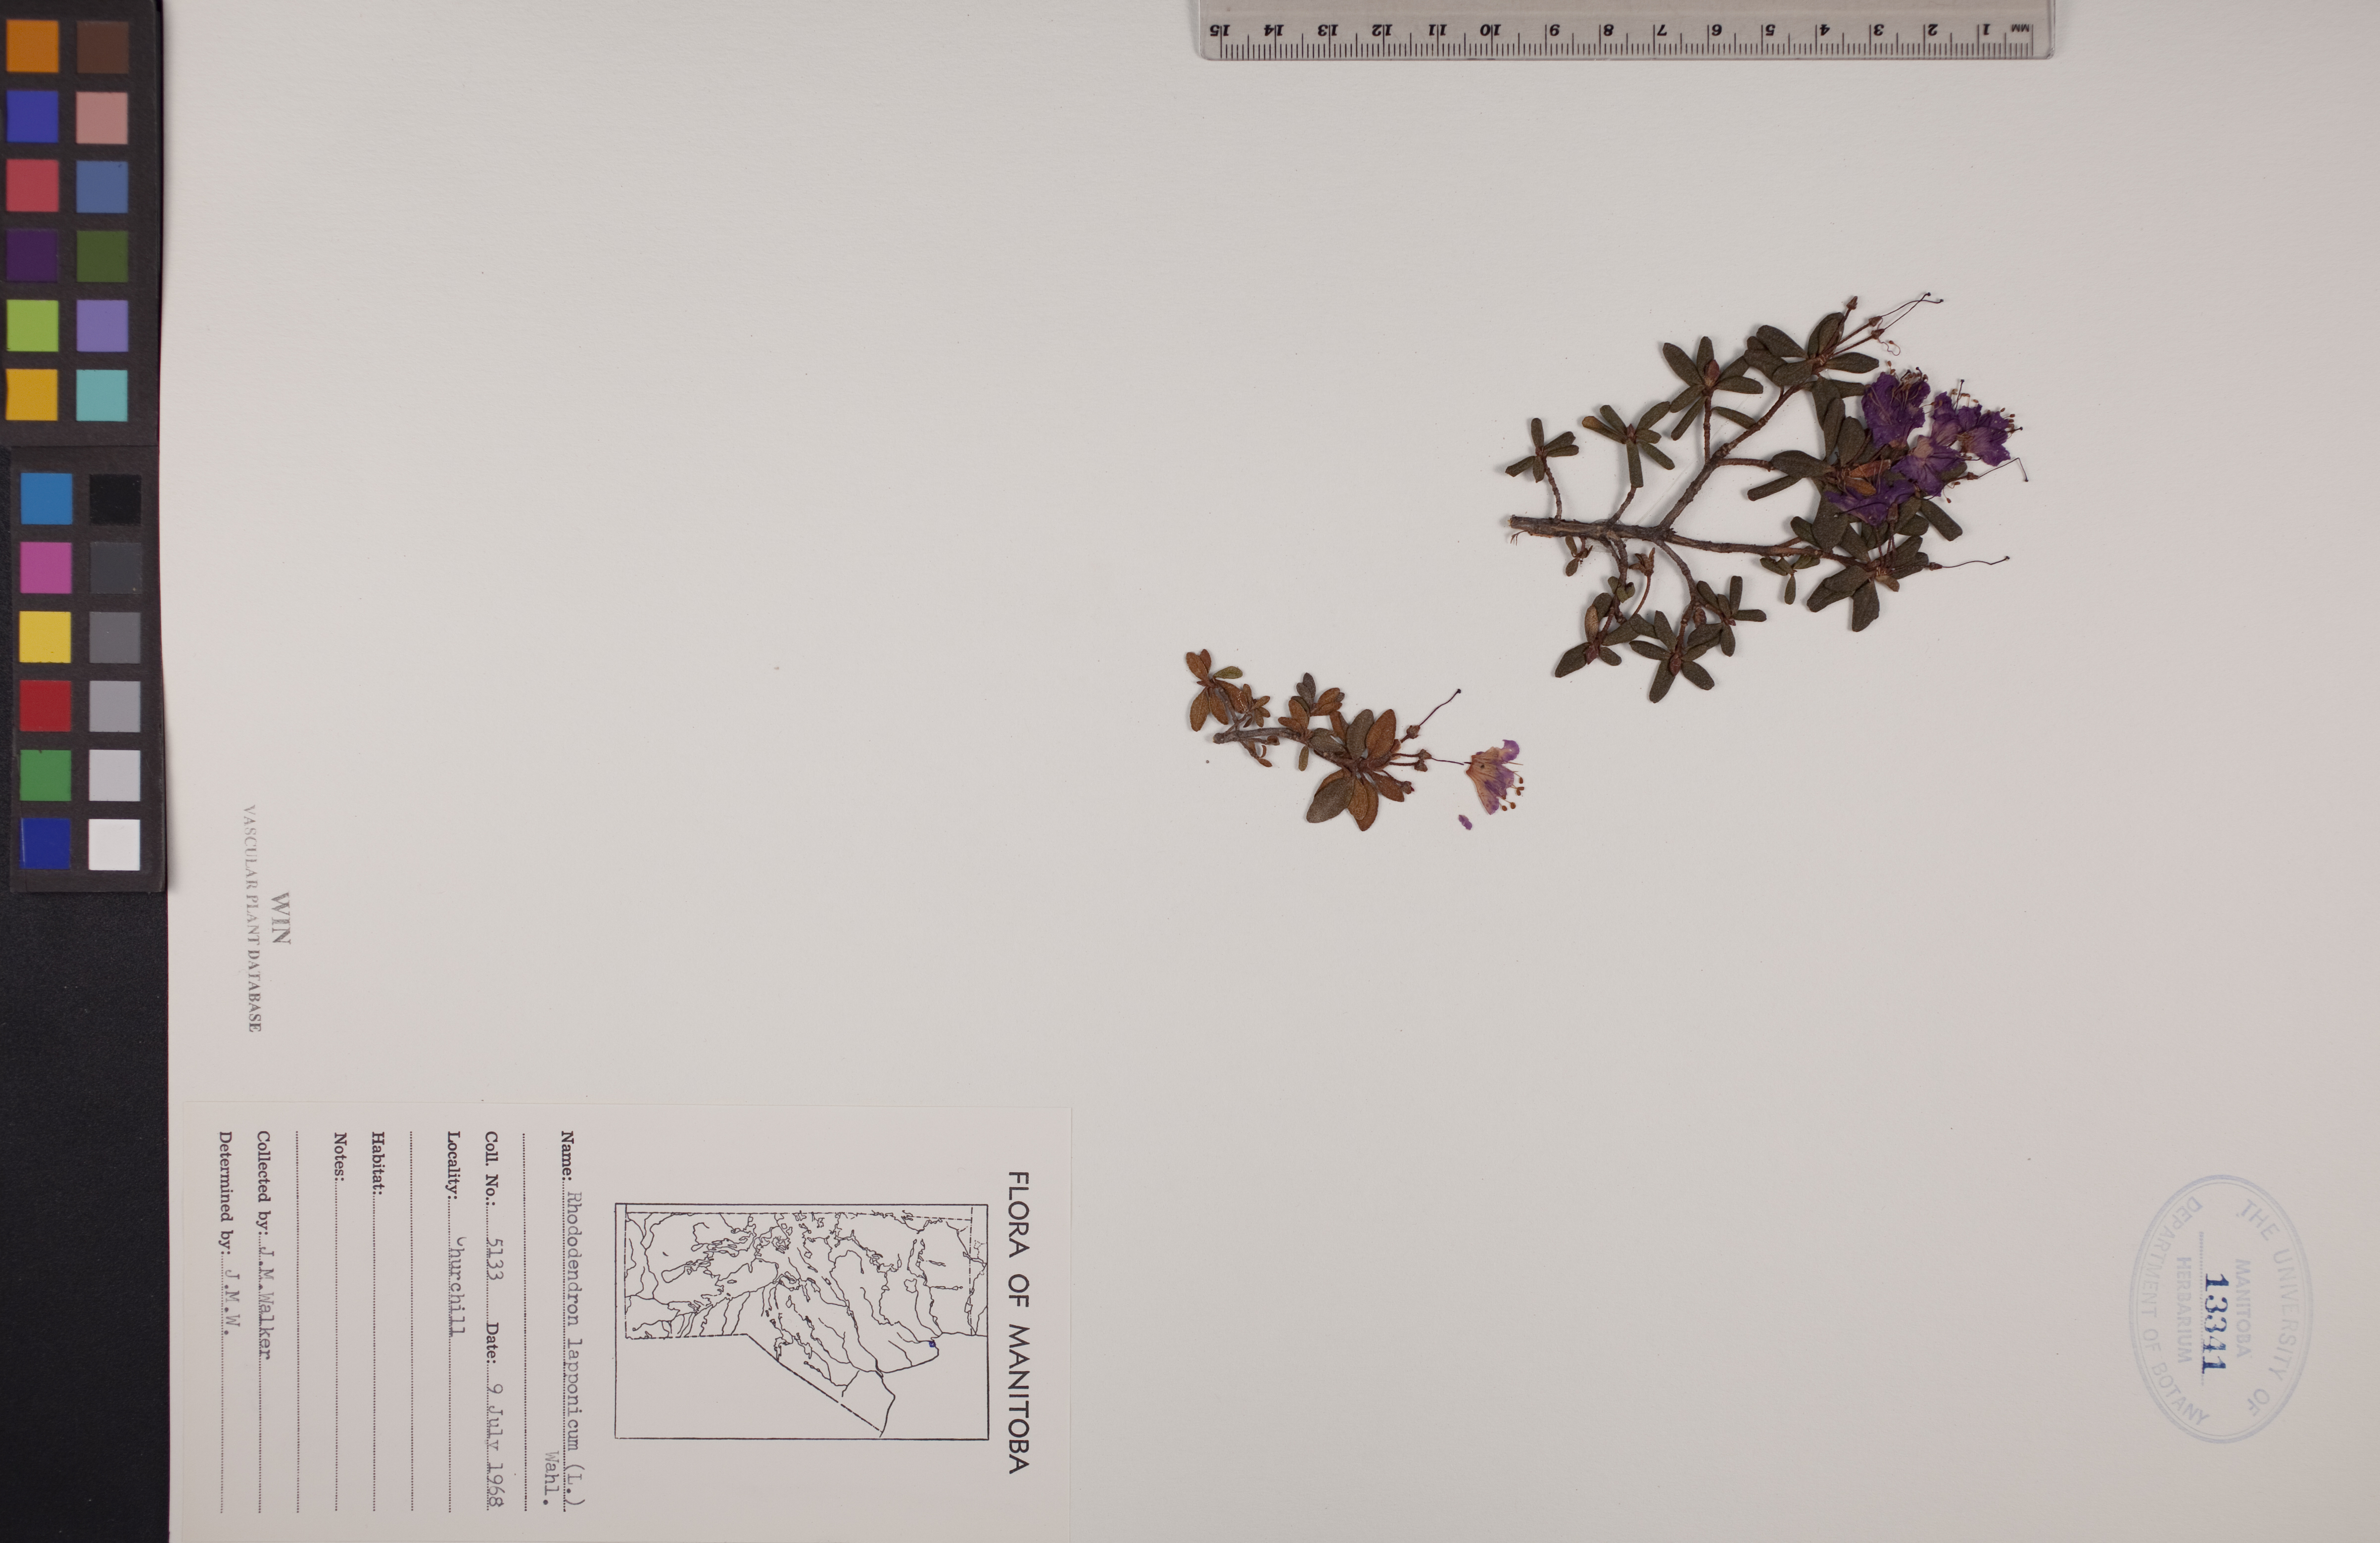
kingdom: Plantae
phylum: Tracheophyta
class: Magnoliopsida
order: Ericales
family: Ericaceae
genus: Rhododendron
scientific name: Rhododendron lapponicum
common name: Lapland rhododendron
